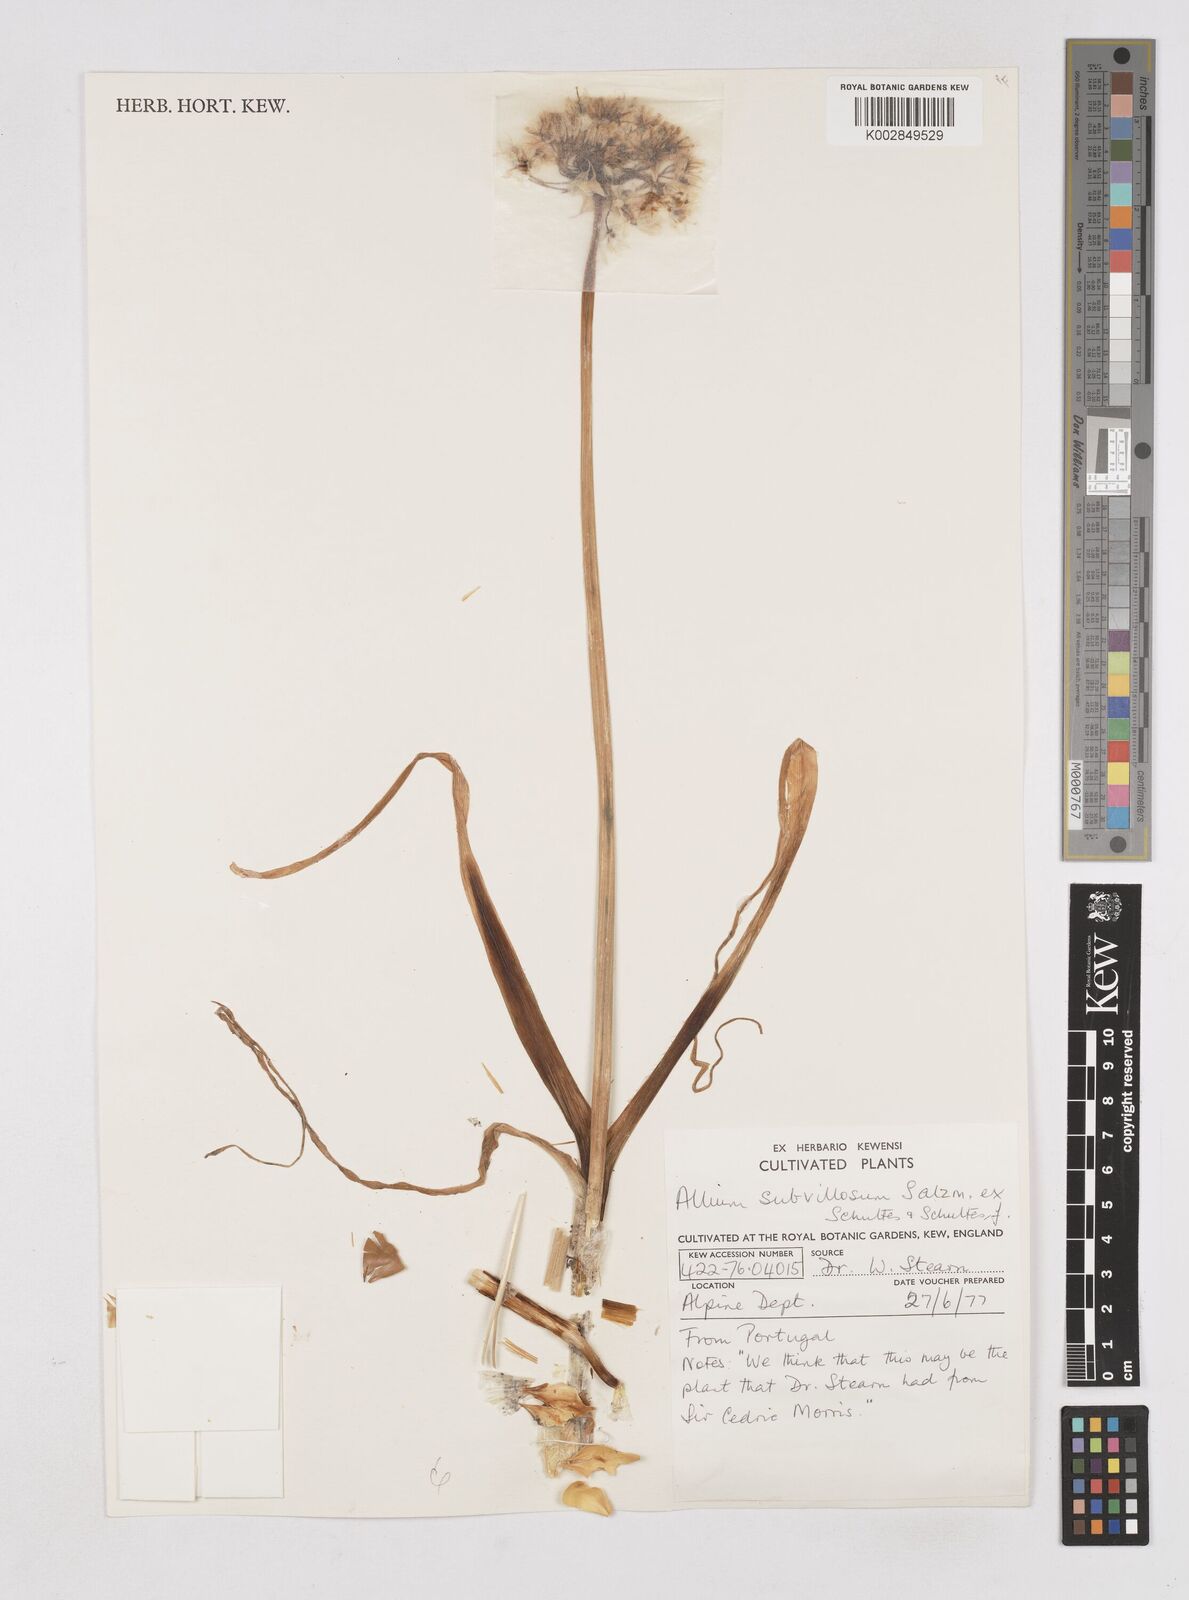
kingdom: Plantae
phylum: Tracheophyta
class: Liliopsida
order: Asparagales
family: Amaryllidaceae
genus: Allium
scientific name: Allium subvillosum
